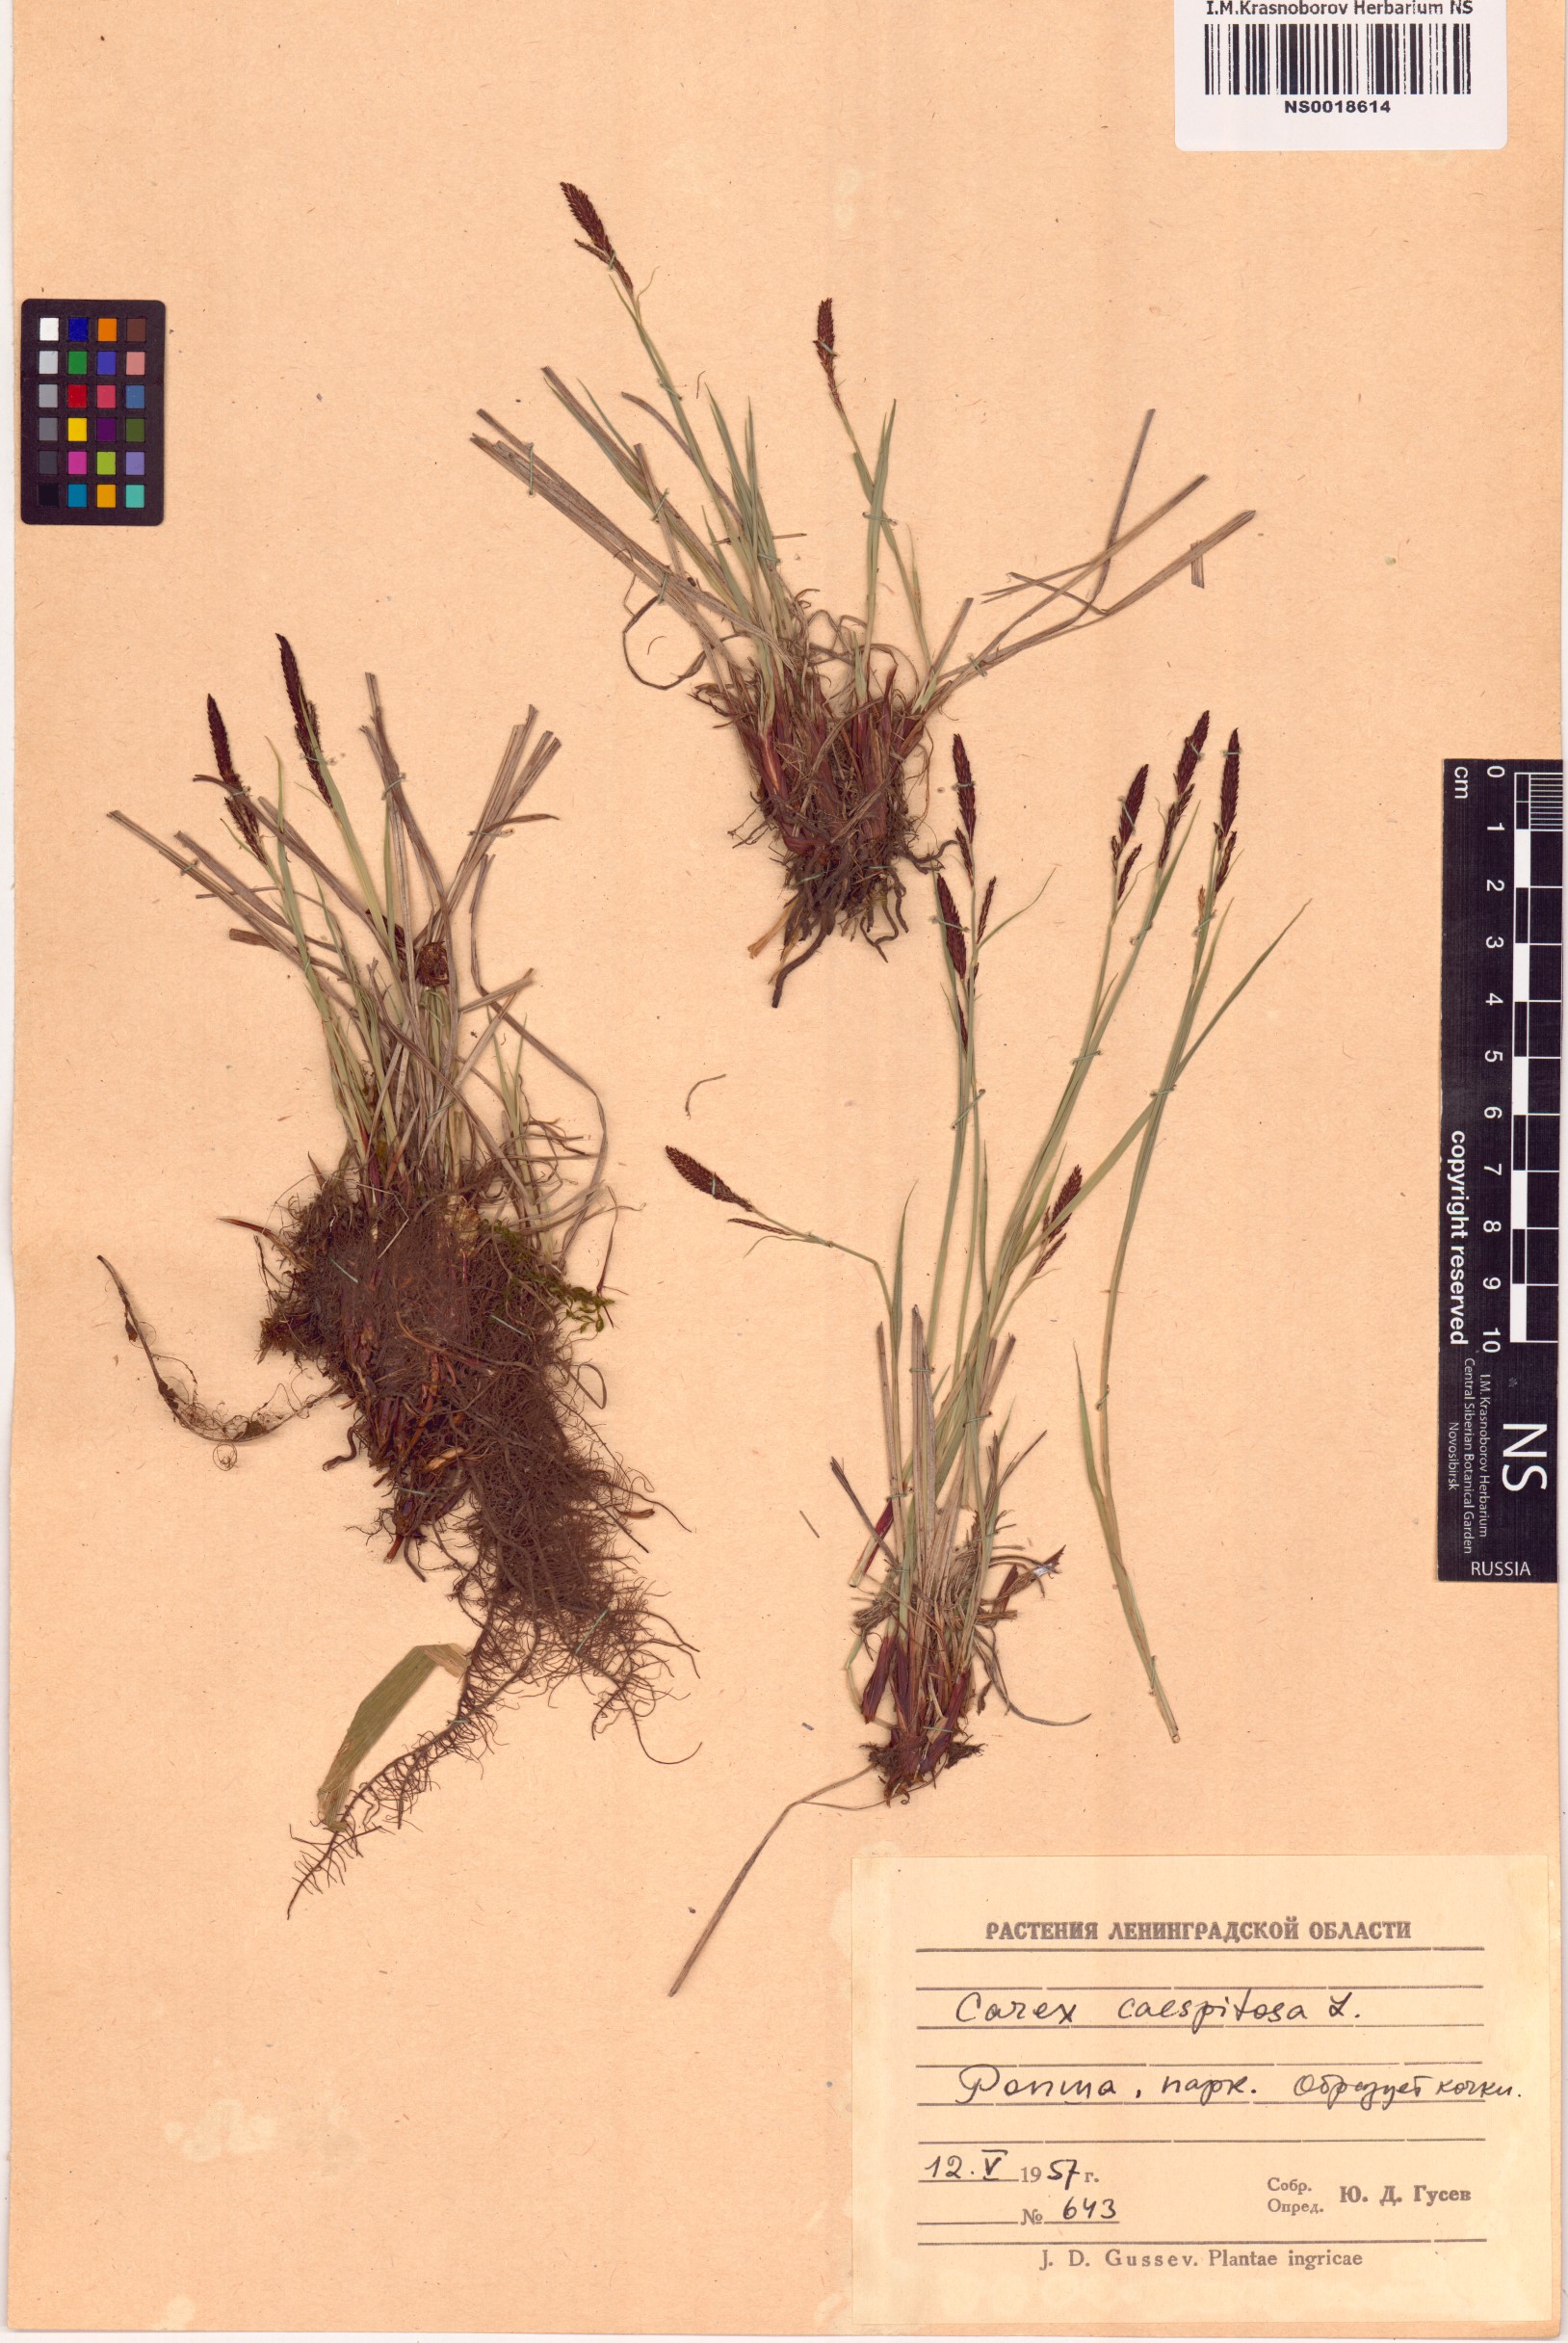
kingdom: Plantae
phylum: Tracheophyta
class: Liliopsida
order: Poales
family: Cyperaceae
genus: Carex
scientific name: Carex cespitosa
